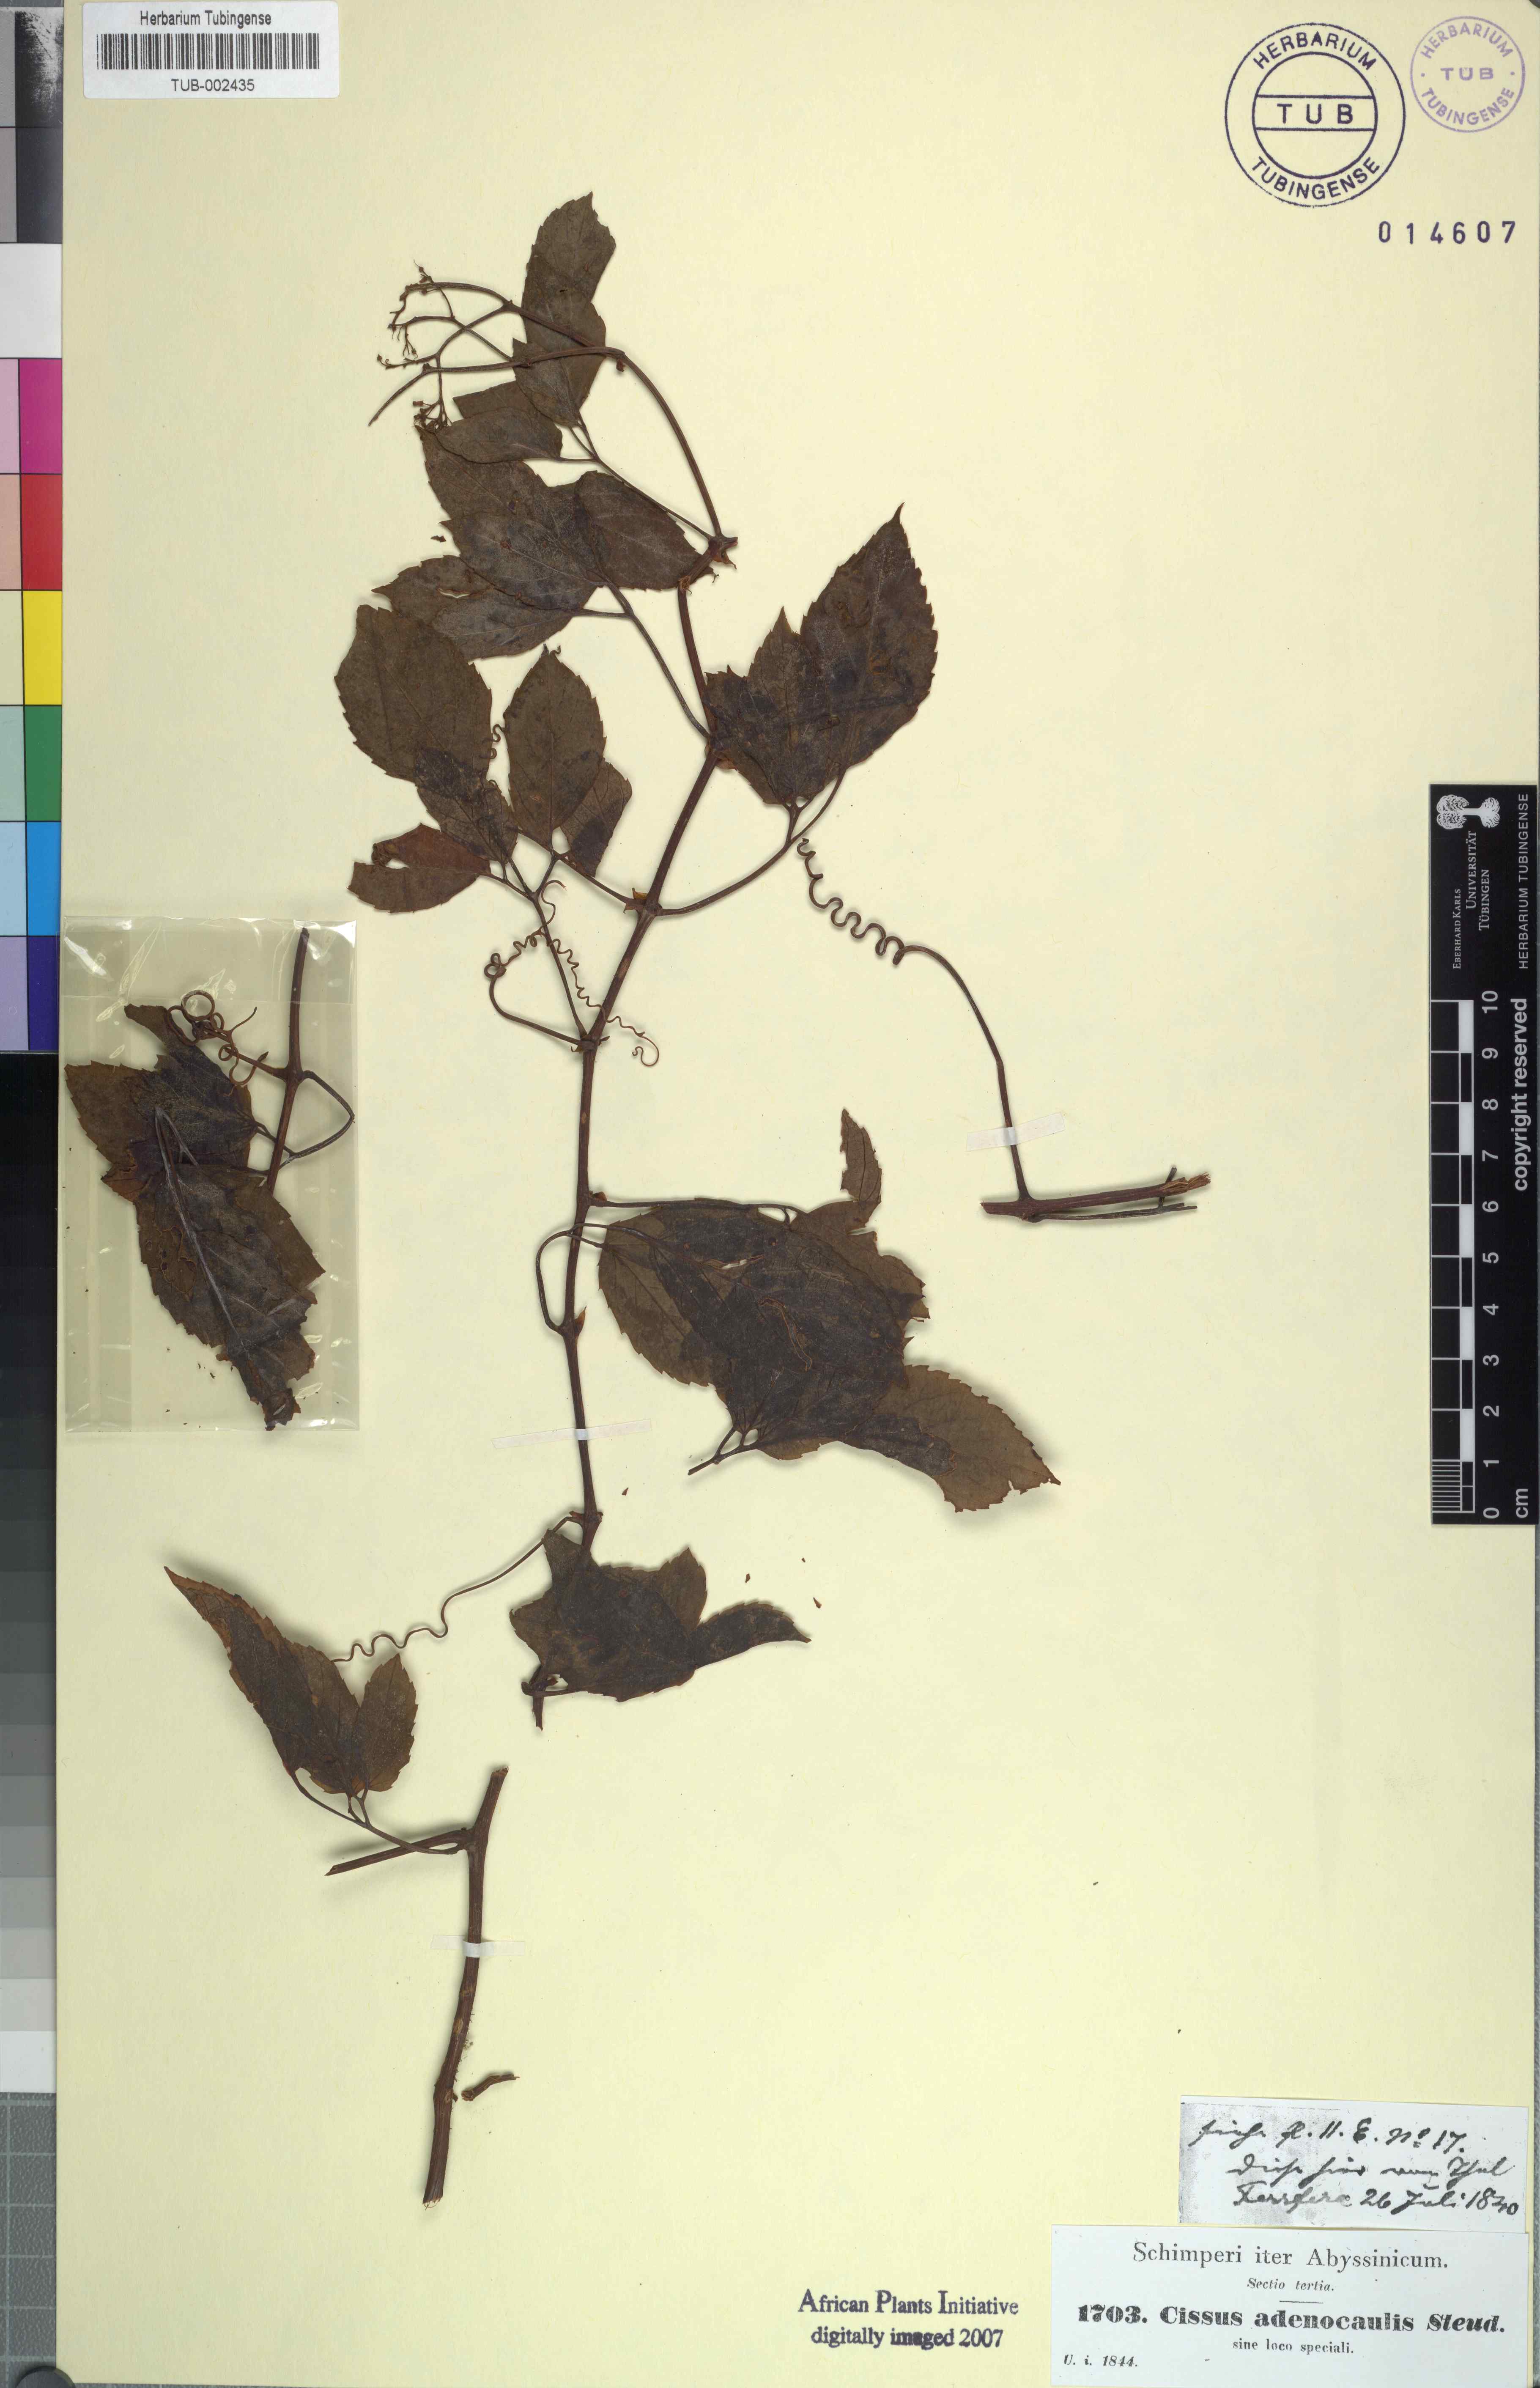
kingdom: Plantae
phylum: Tracheophyta
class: Magnoliopsida
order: Vitales
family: Vitaceae
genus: Cyphostemma
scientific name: Cyphostemma adenocaule
